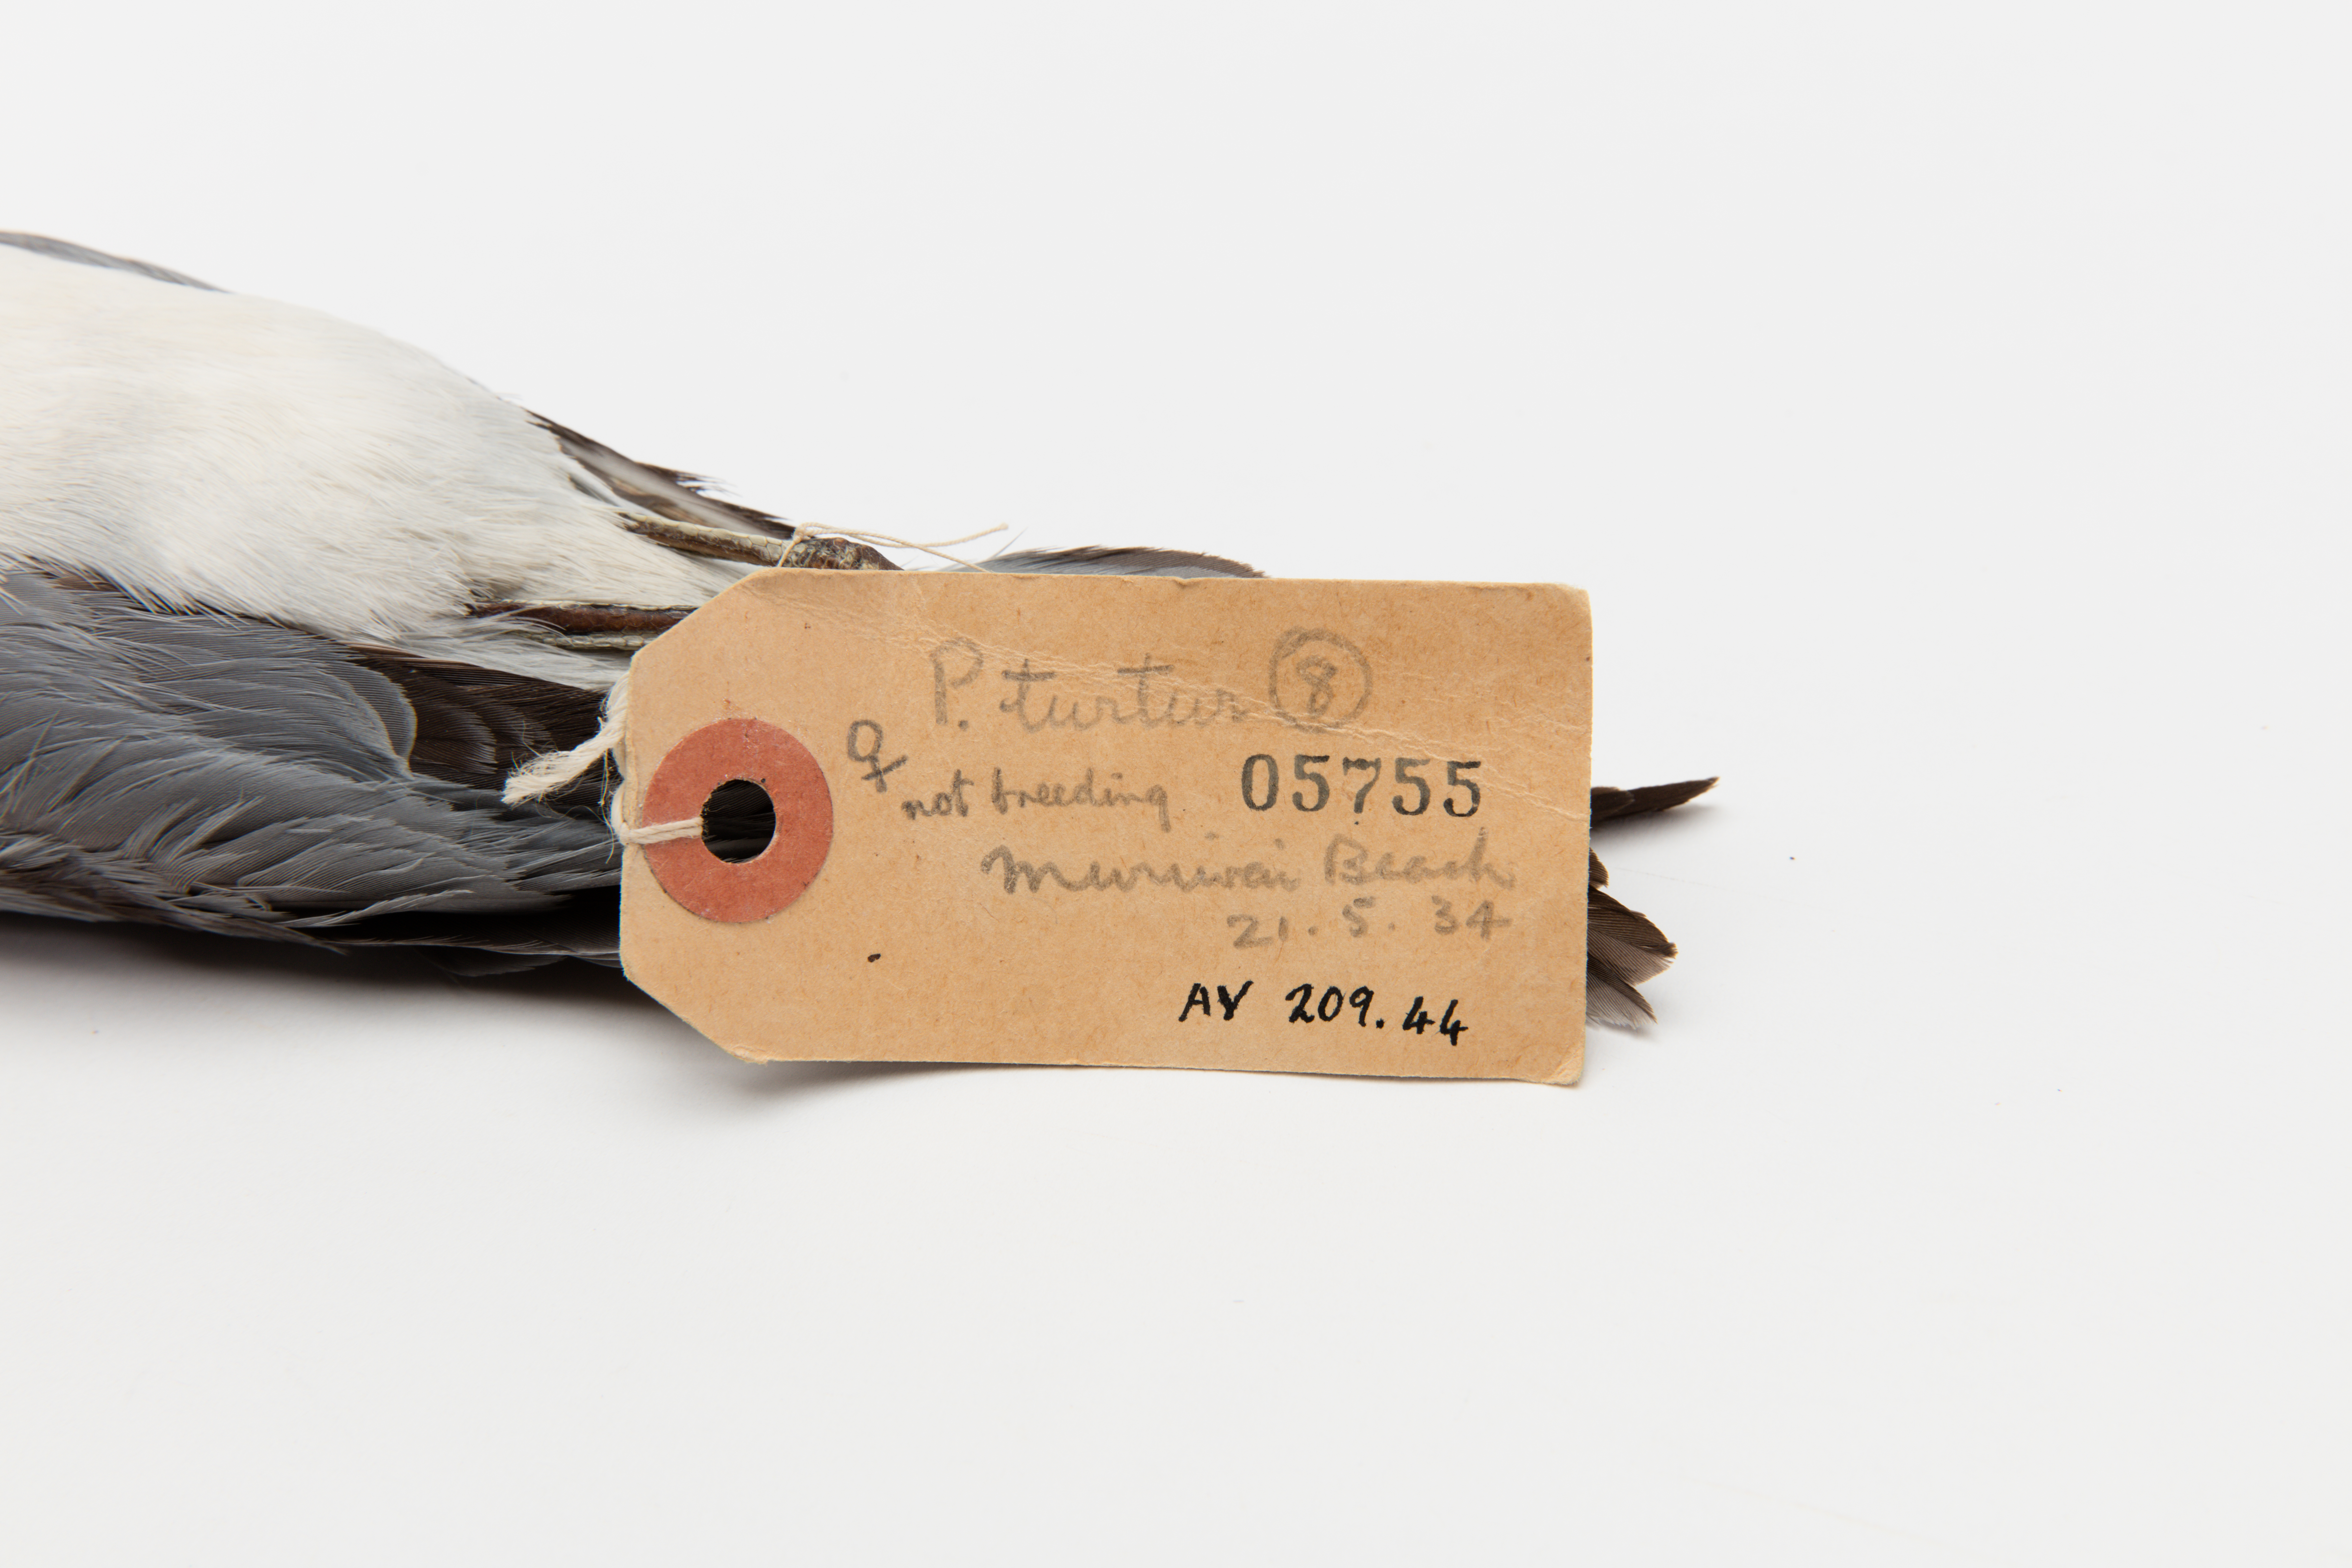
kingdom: Animalia
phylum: Chordata
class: Aves
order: Procellariiformes
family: Procellariidae
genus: Pachyptila
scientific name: Pachyptila turtur
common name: Fairy prion
